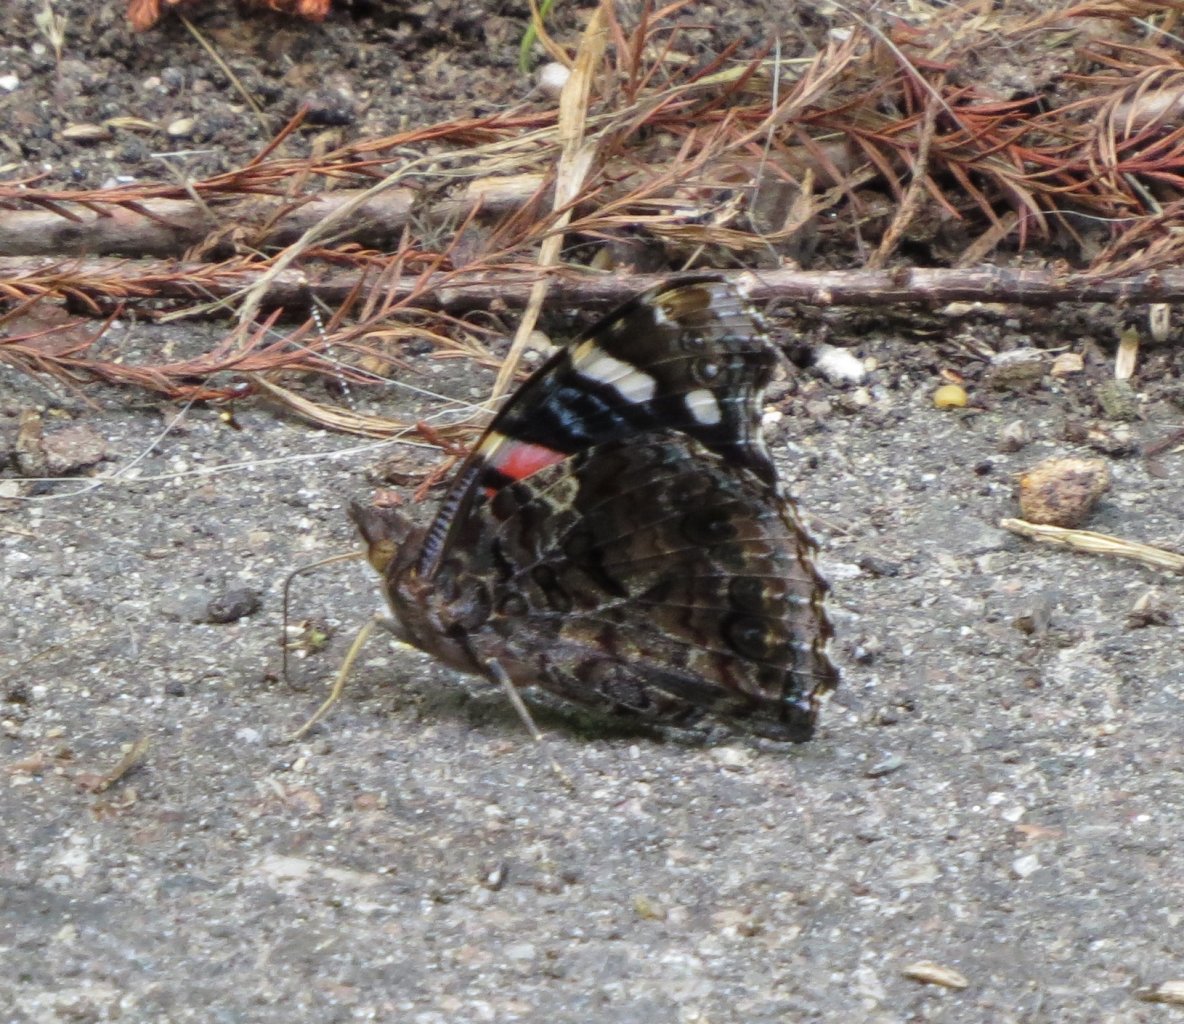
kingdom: Animalia
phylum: Arthropoda
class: Insecta
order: Lepidoptera
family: Nymphalidae
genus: Vanessa
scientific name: Vanessa atalanta
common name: Red Admiral
